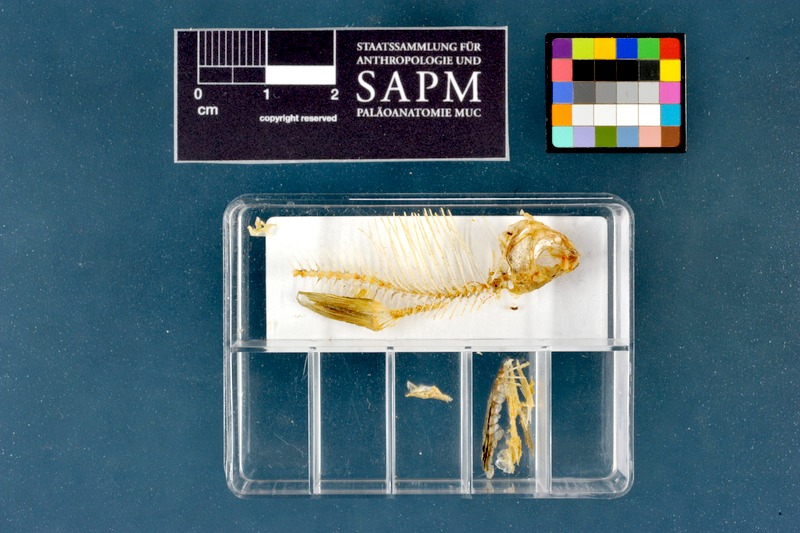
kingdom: Animalia
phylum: Chordata
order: Cypriniformes
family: Cyprinidae
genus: Rhodeus
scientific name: Rhodeus amarus
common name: Bitterling
